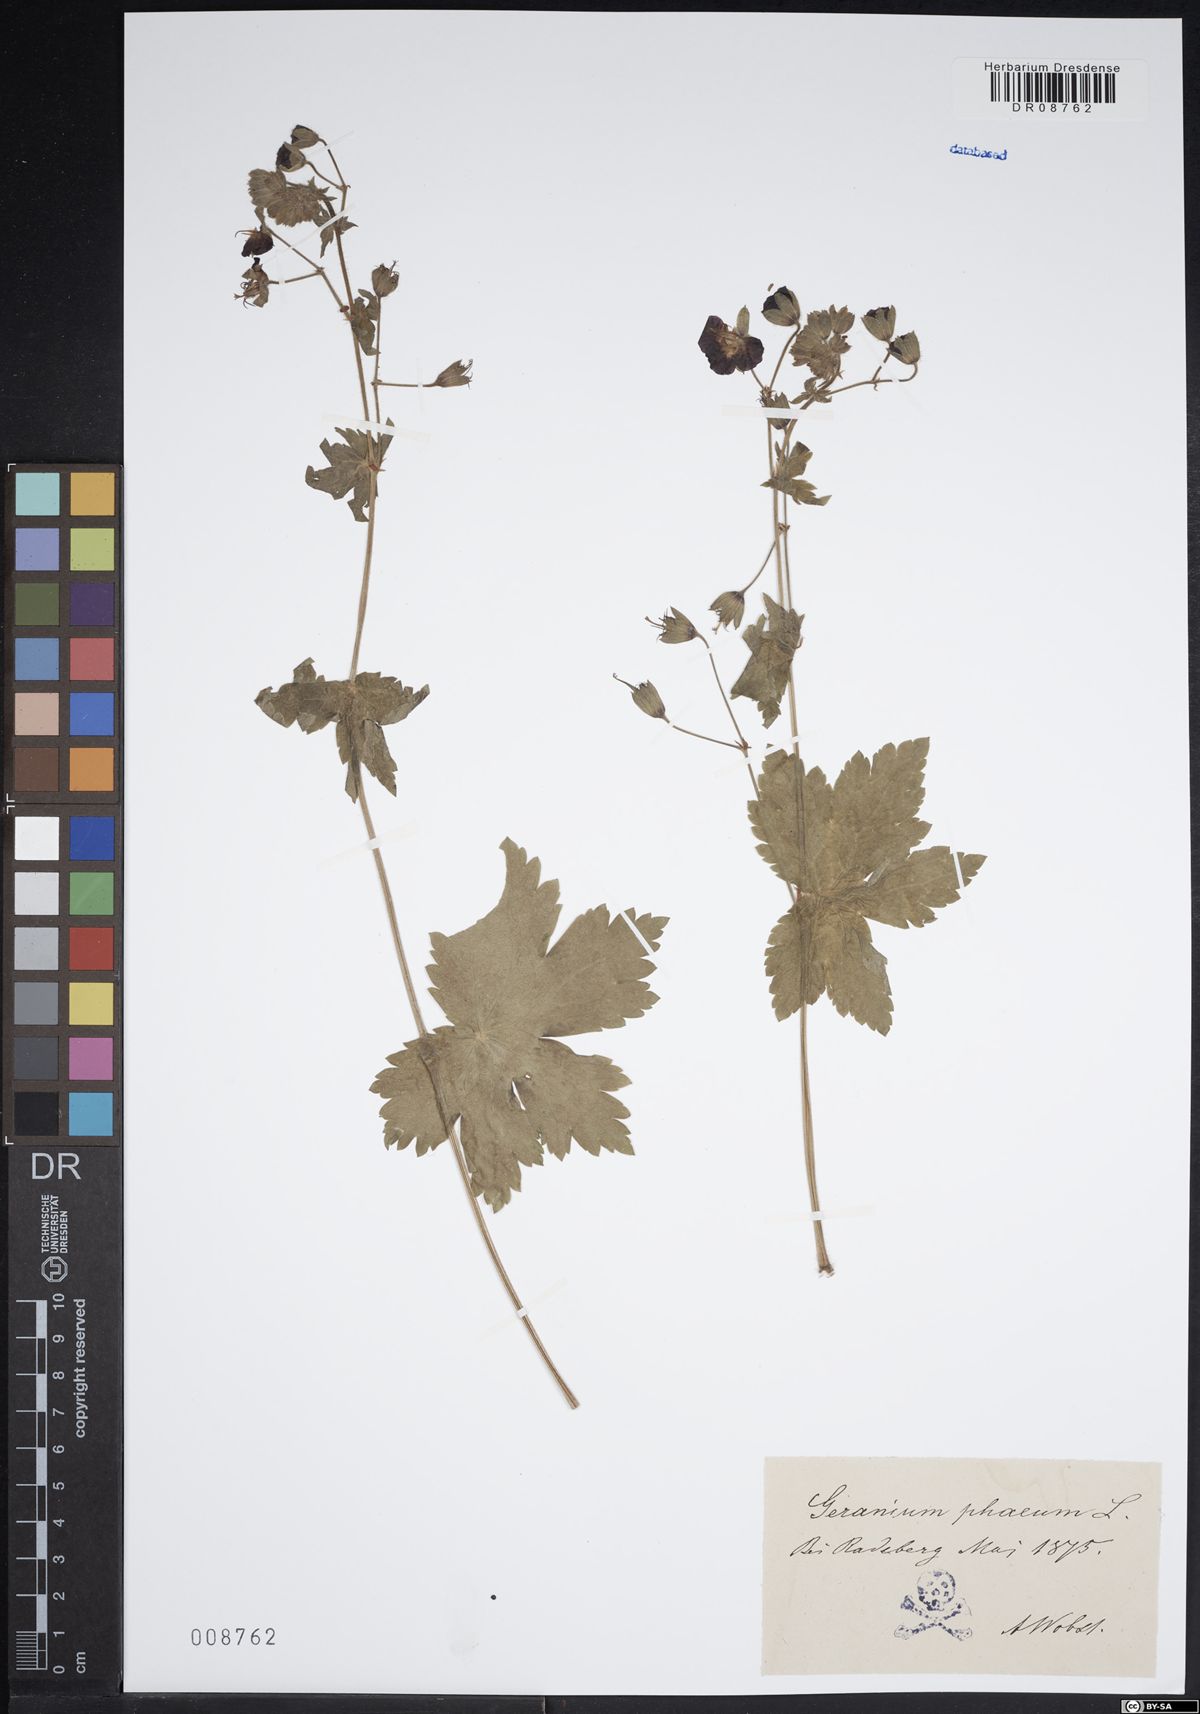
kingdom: Plantae
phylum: Tracheophyta
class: Magnoliopsida
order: Geraniales
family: Geraniaceae
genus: Geranium
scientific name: Geranium phaeum
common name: Dusky crane's-bill
